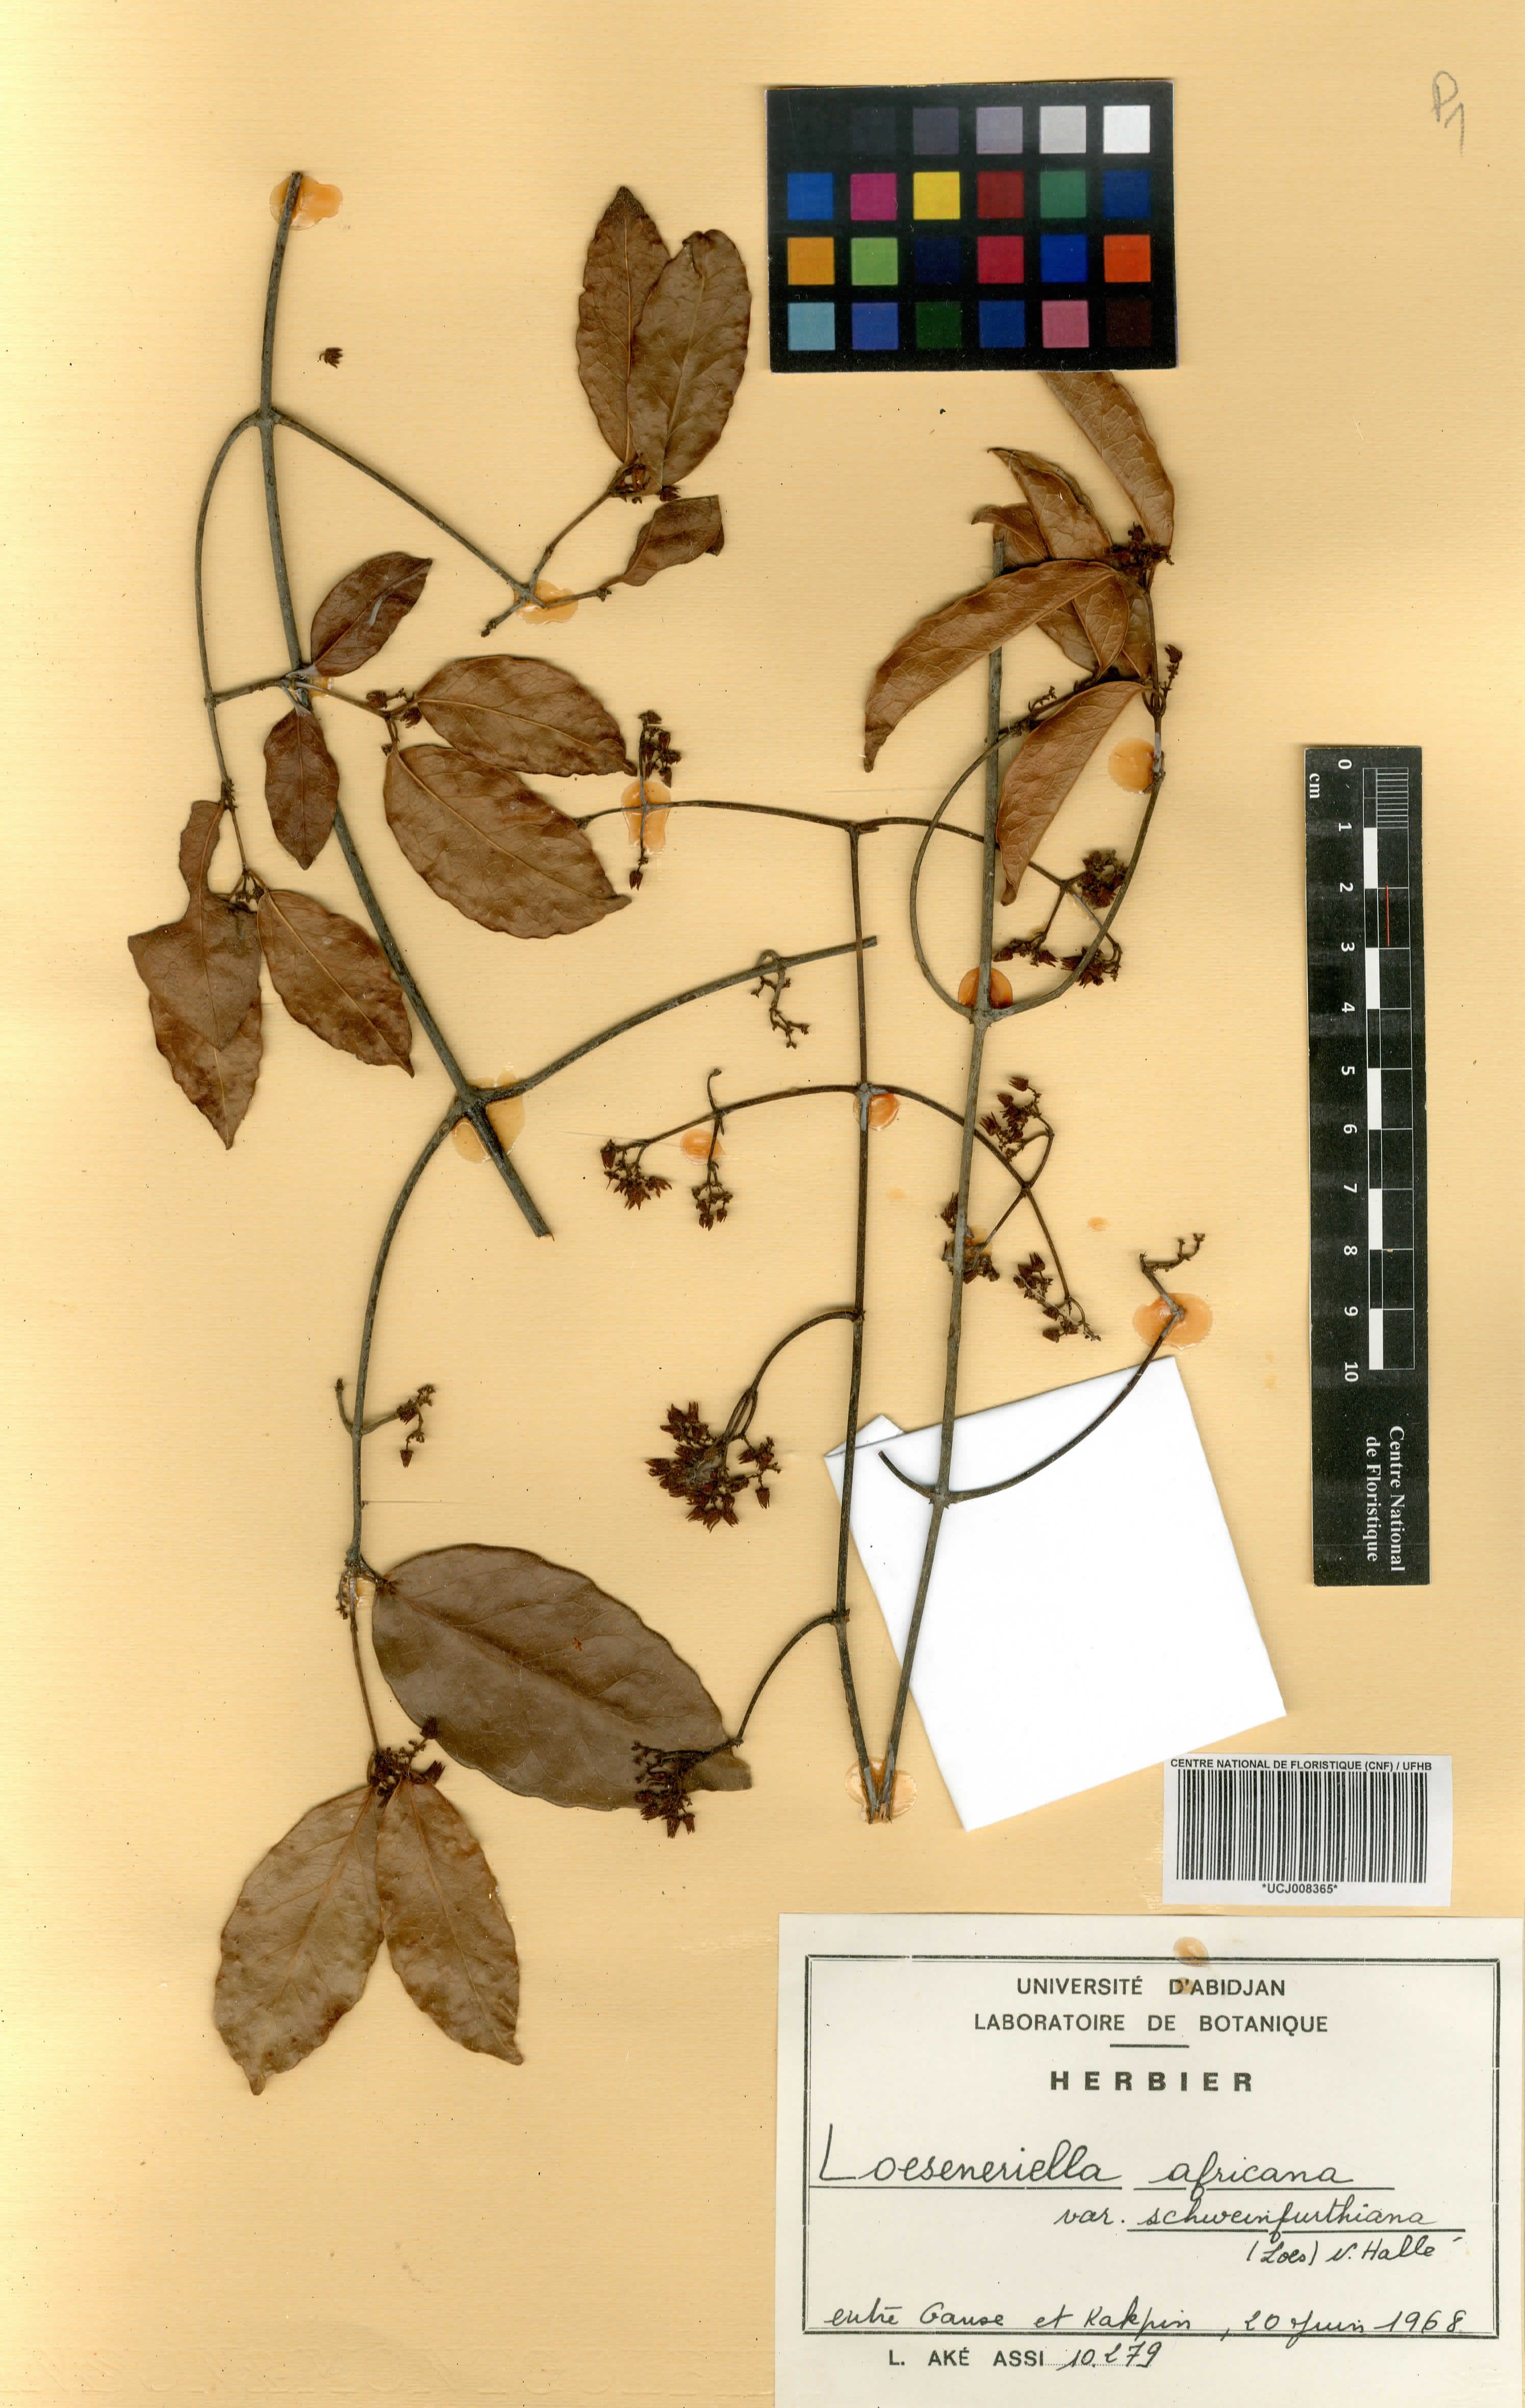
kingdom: Plantae
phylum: Tracheophyta
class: Magnoliopsida
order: Celastrales
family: Celastraceae
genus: Loeseneriella
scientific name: Loeseneriella africana
